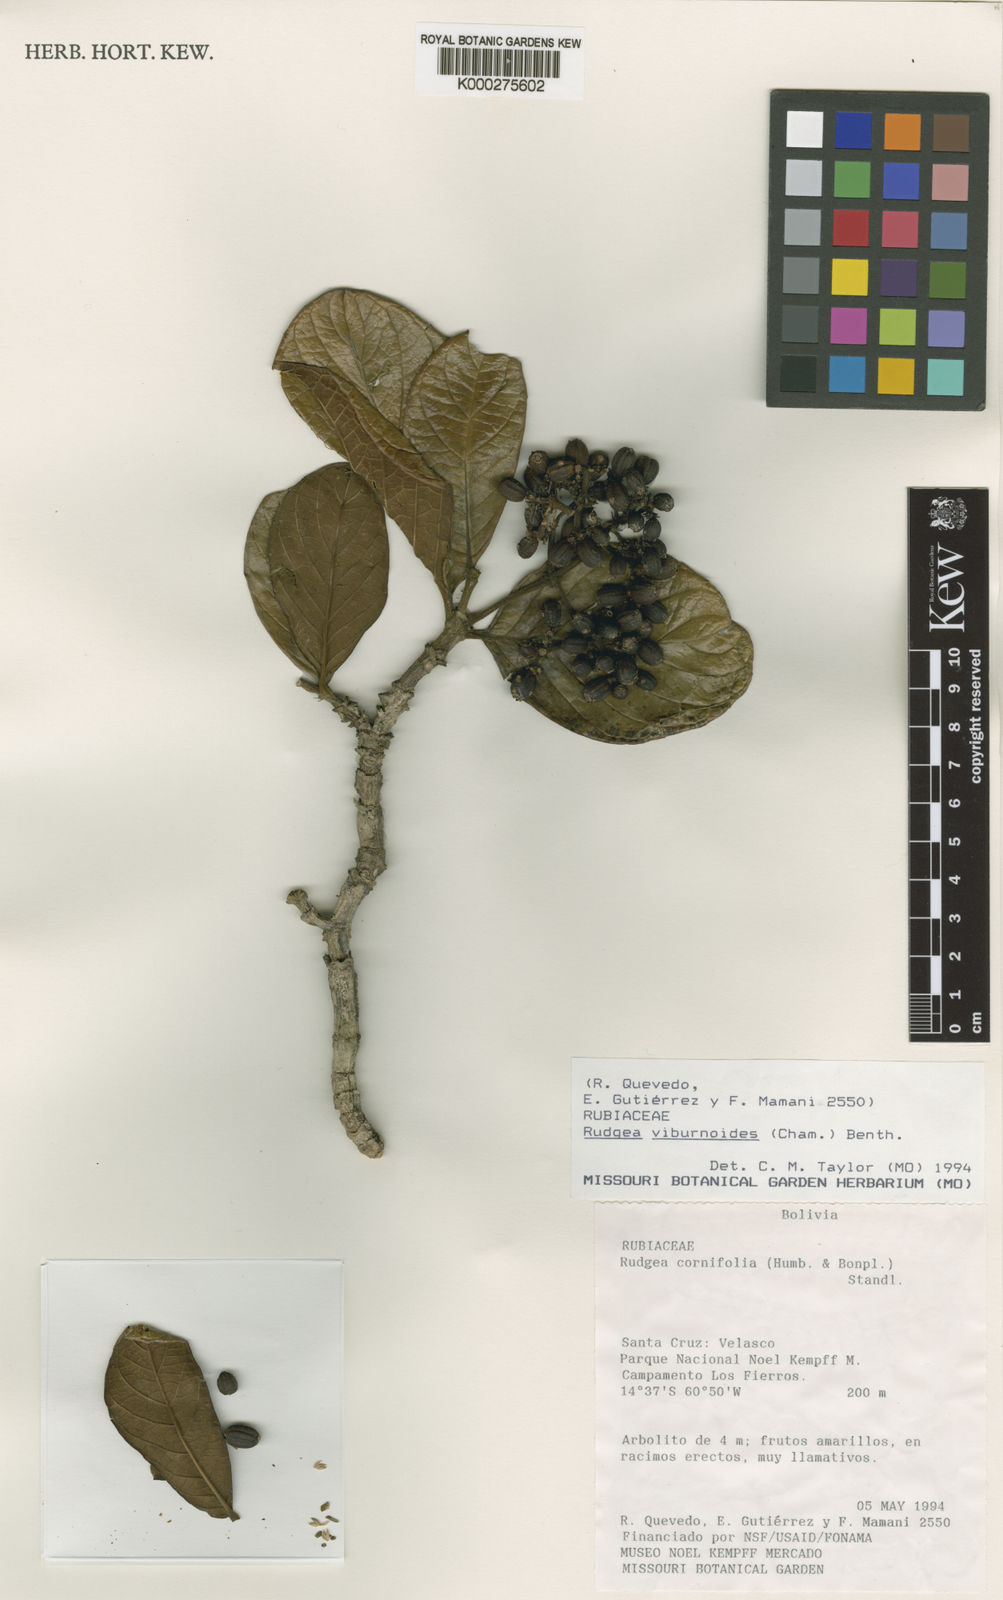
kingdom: Plantae
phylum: Tracheophyta
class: Magnoliopsida
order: Gentianales
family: Rubiaceae
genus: Rudgea
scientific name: Rudgea viburnoides
